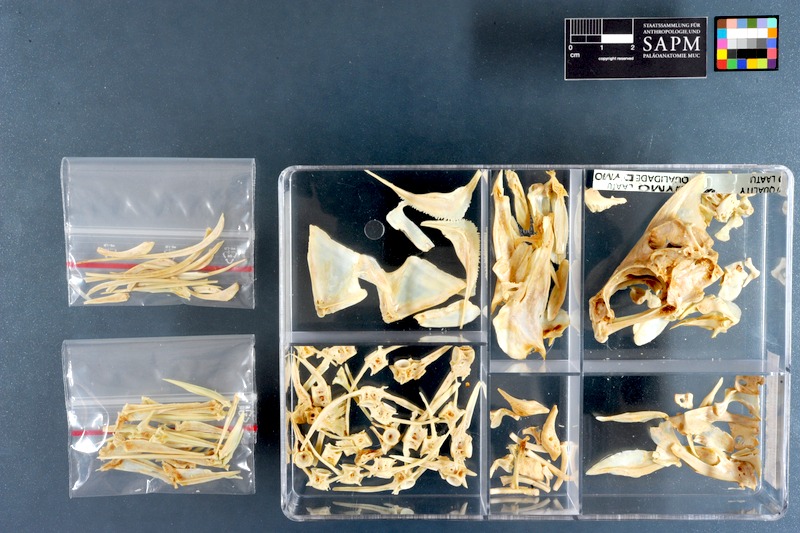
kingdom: Animalia
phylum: Chordata
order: Perciformes
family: Dichistiidae
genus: Dichistius
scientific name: Dichistius capensis
